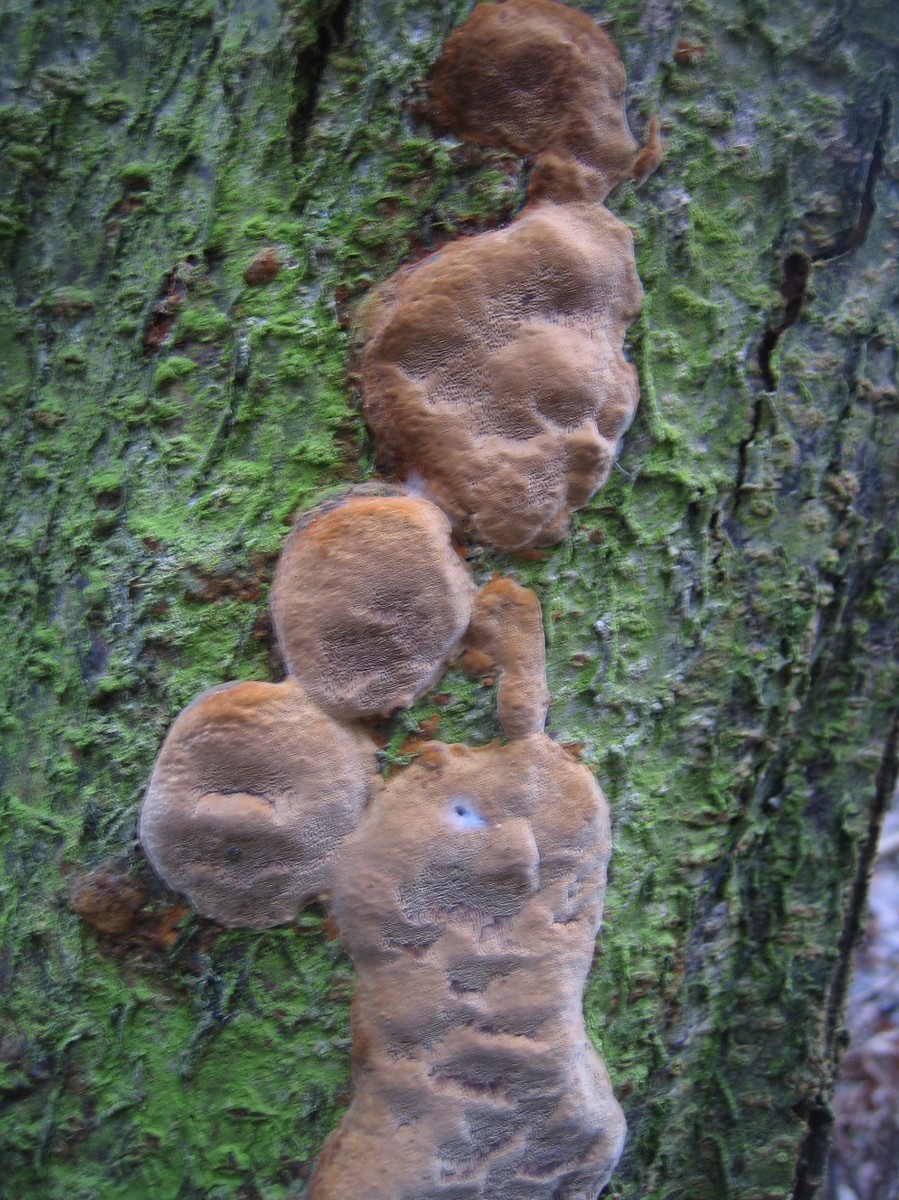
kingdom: Fungi
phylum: Basidiomycota
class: Agaricomycetes
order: Hymenochaetales
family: Hymenochaetaceae
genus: Phellinus
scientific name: Phellinus pomaceus
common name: blomme-ildporesvamp
